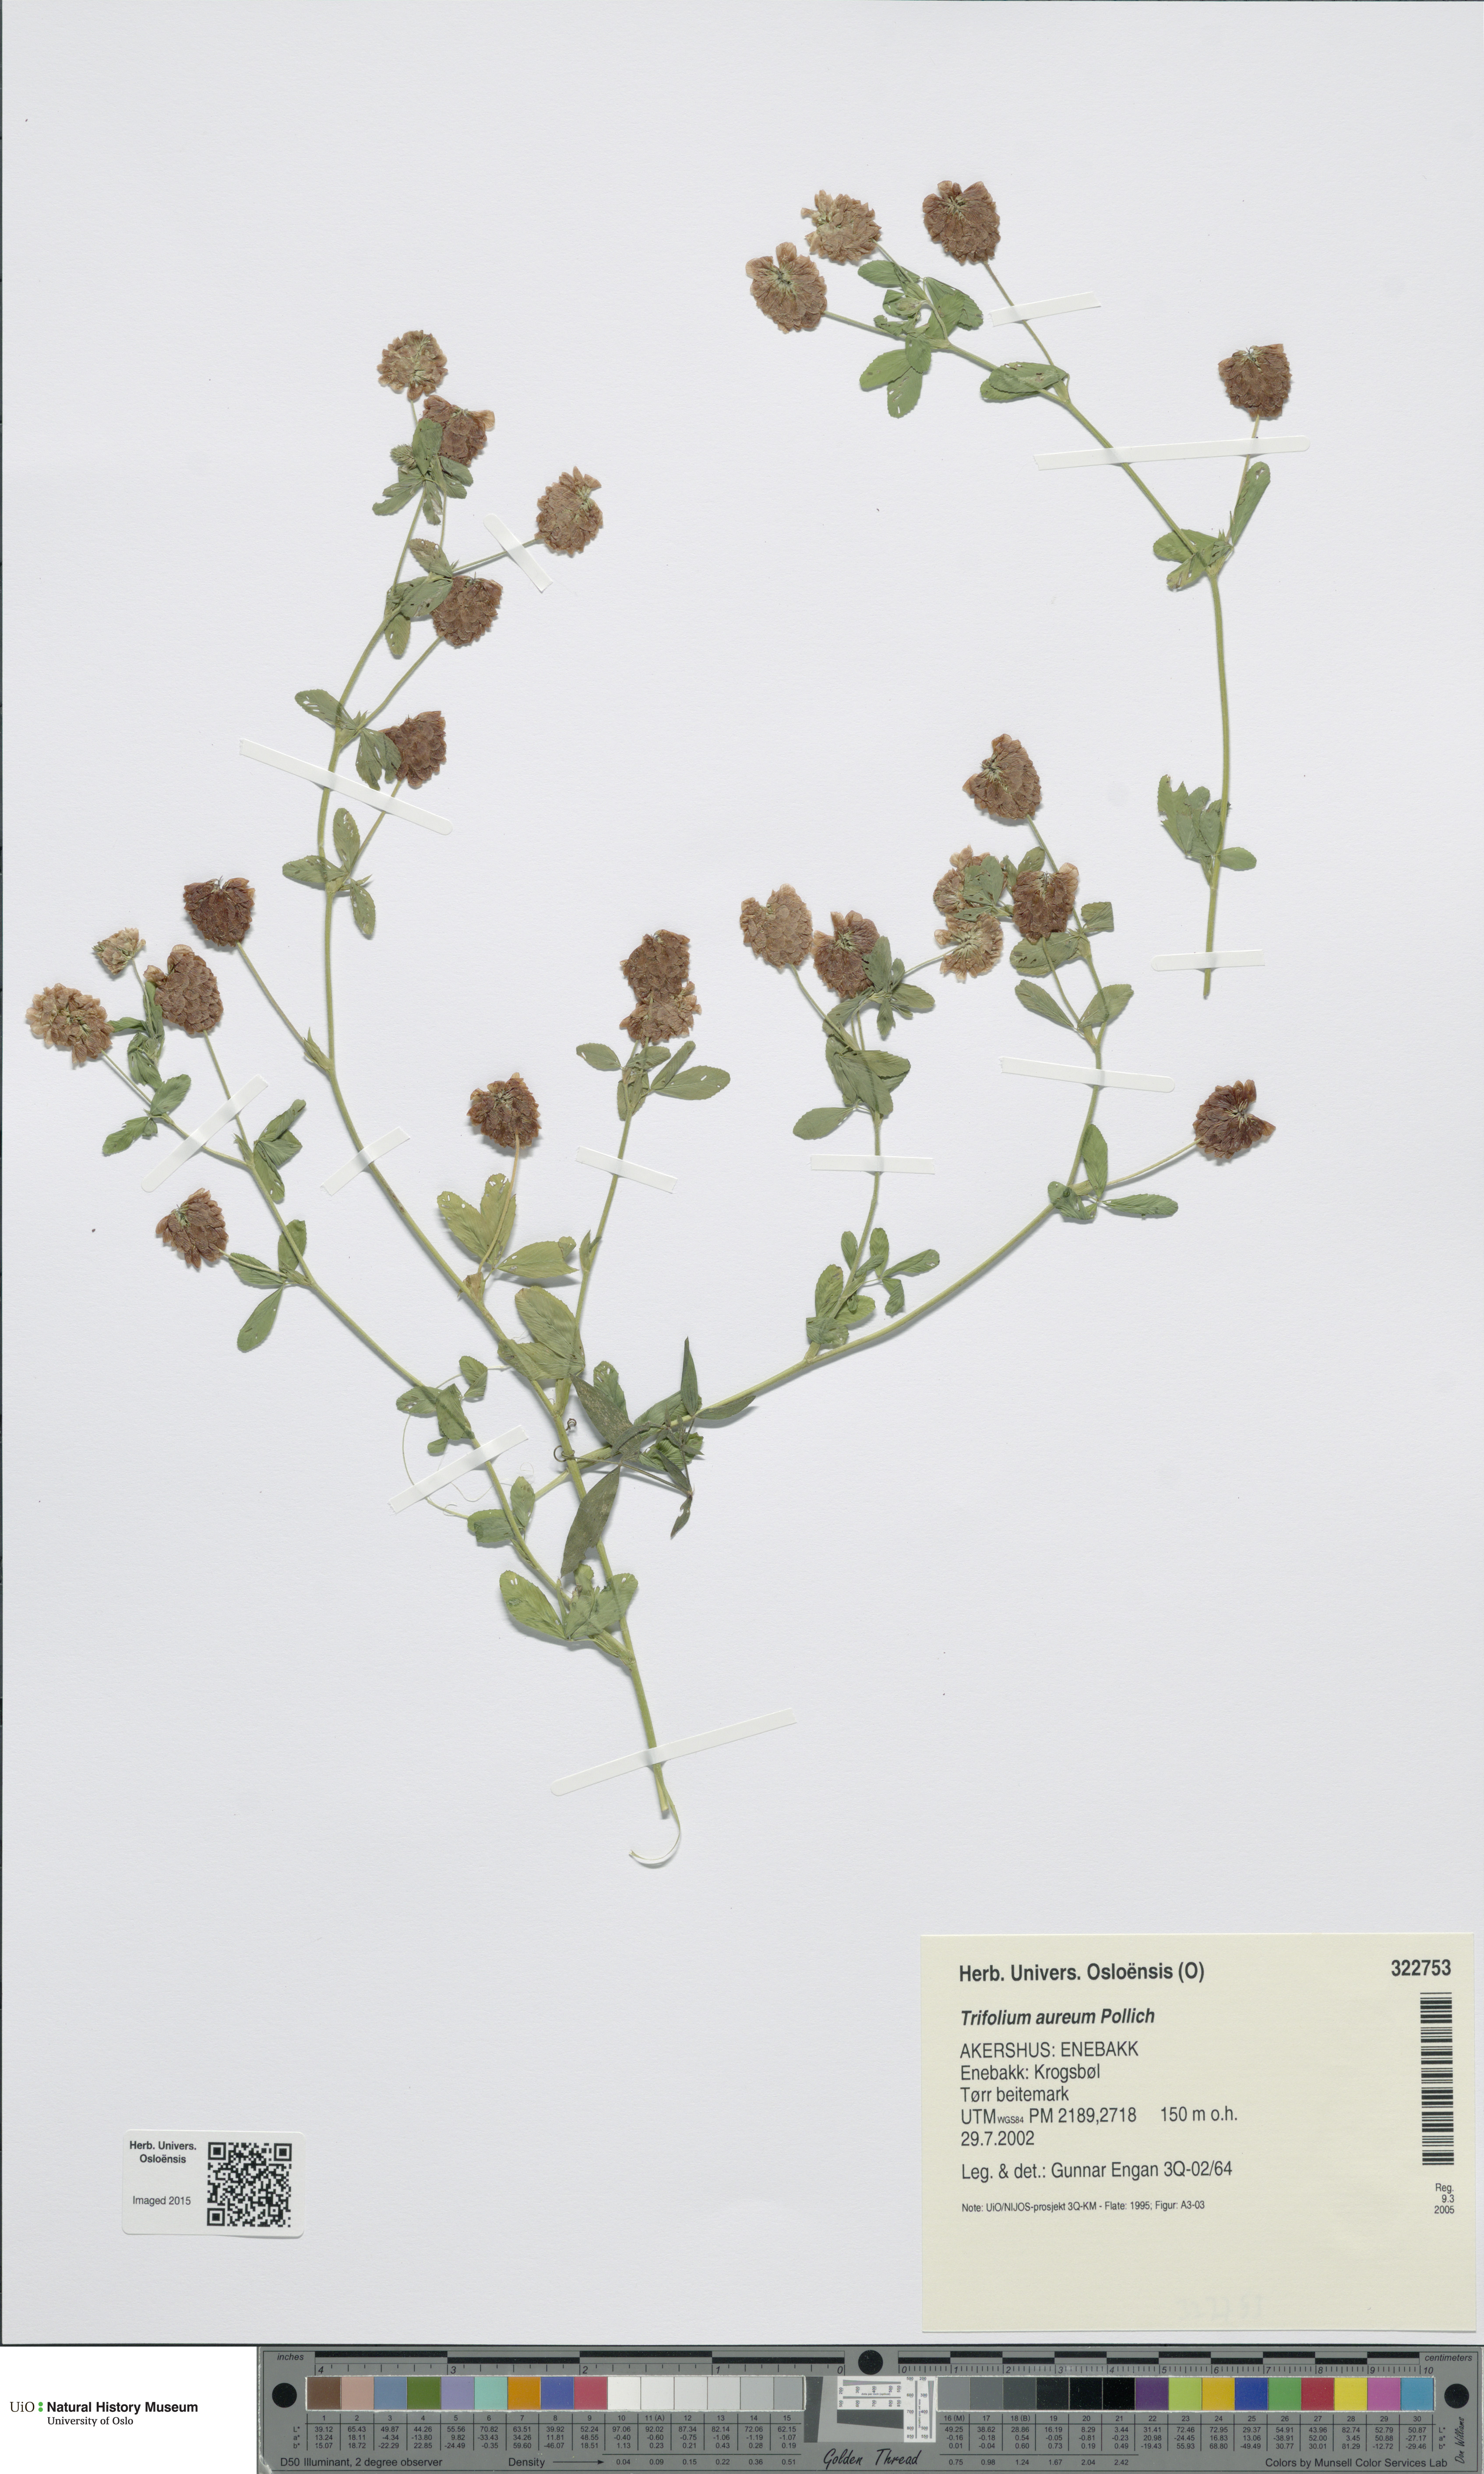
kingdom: Plantae
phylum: Tracheophyta
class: Magnoliopsida
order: Fabales
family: Fabaceae
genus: Trifolium
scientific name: Trifolium aureum
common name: Golden clover
